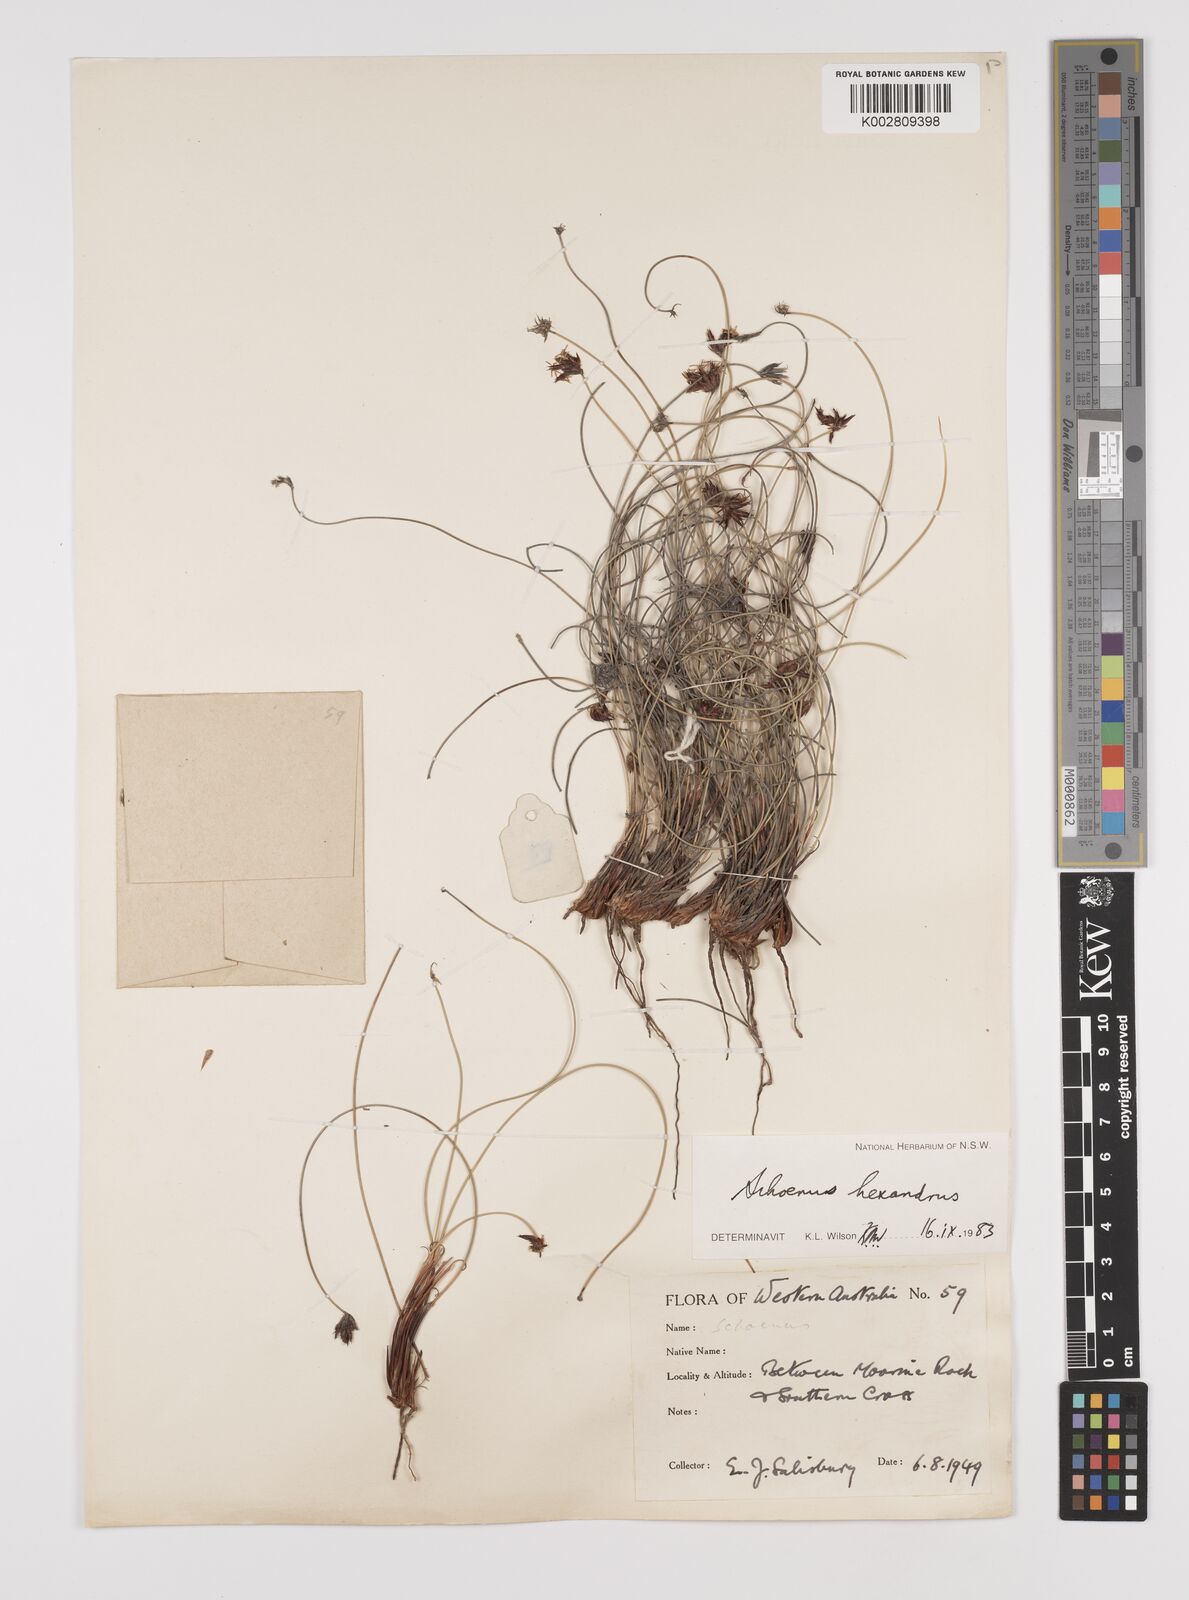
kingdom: Plantae
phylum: Tracheophyta
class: Liliopsida
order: Poales
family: Cyperaceae
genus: Schoenus
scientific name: Schoenus hexander
